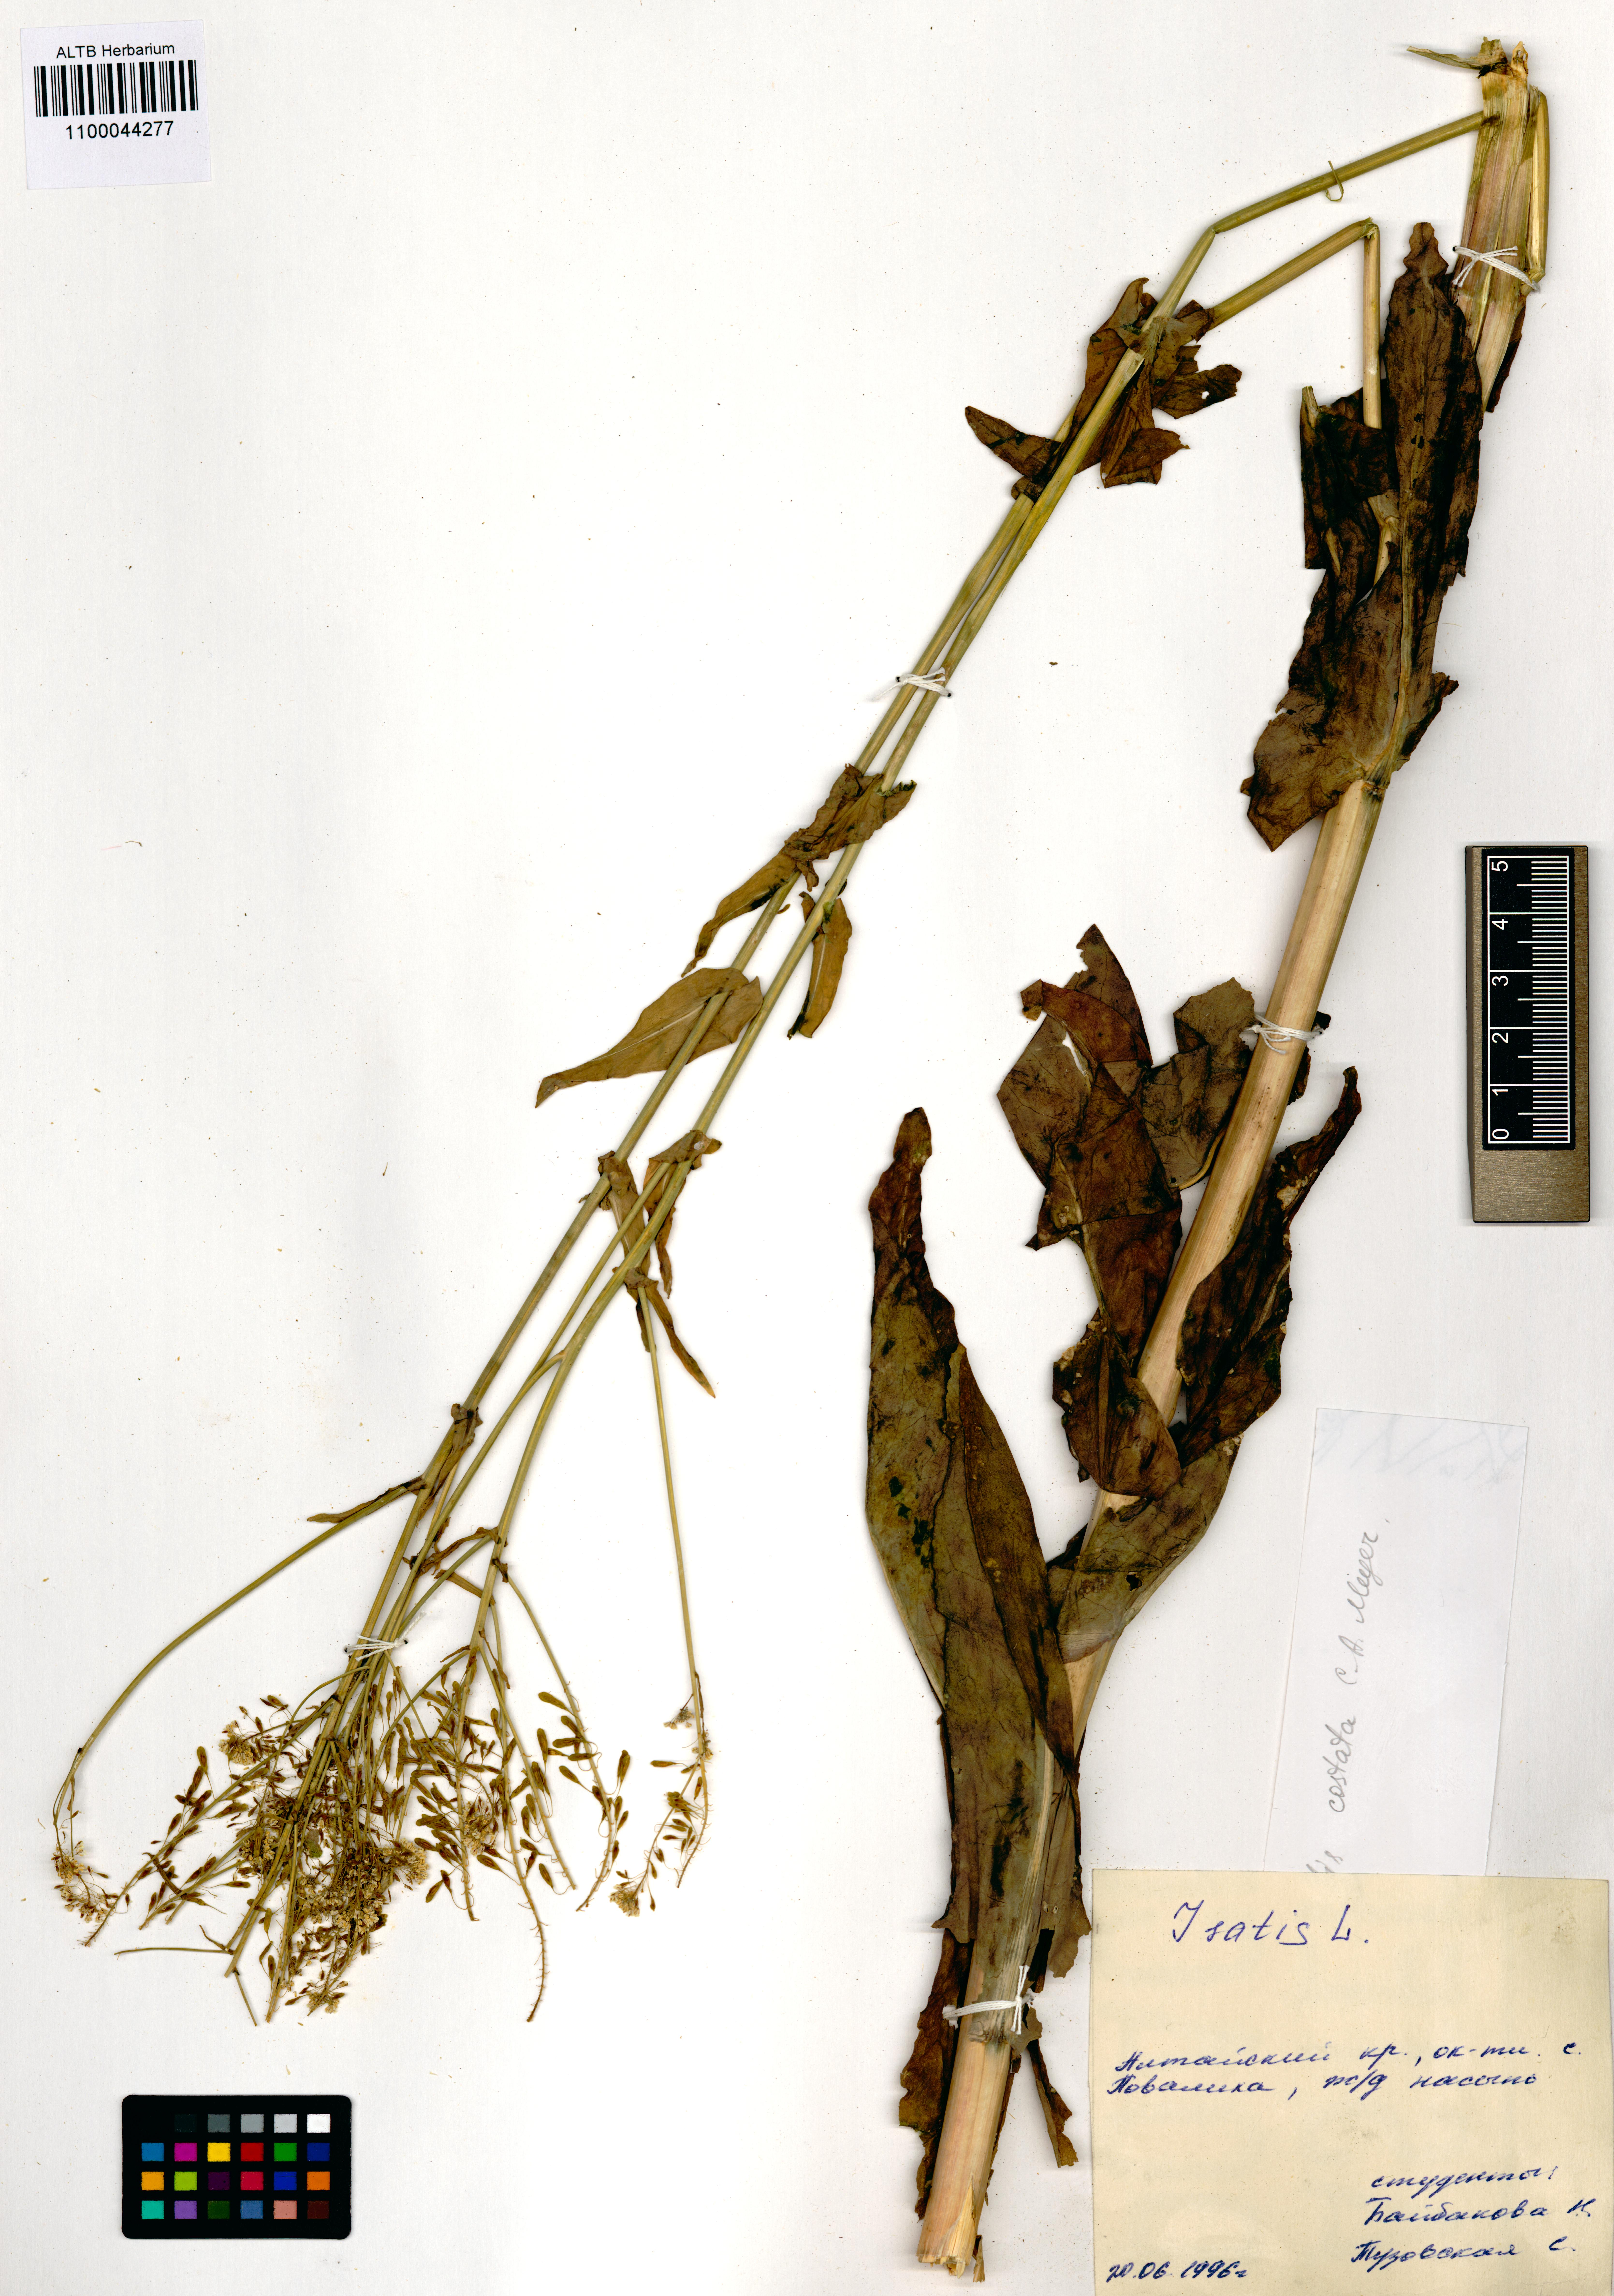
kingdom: Plantae
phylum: Tracheophyta
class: Magnoliopsida
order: Brassicales
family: Brassicaceae
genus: Isatis
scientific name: Isatis costata
